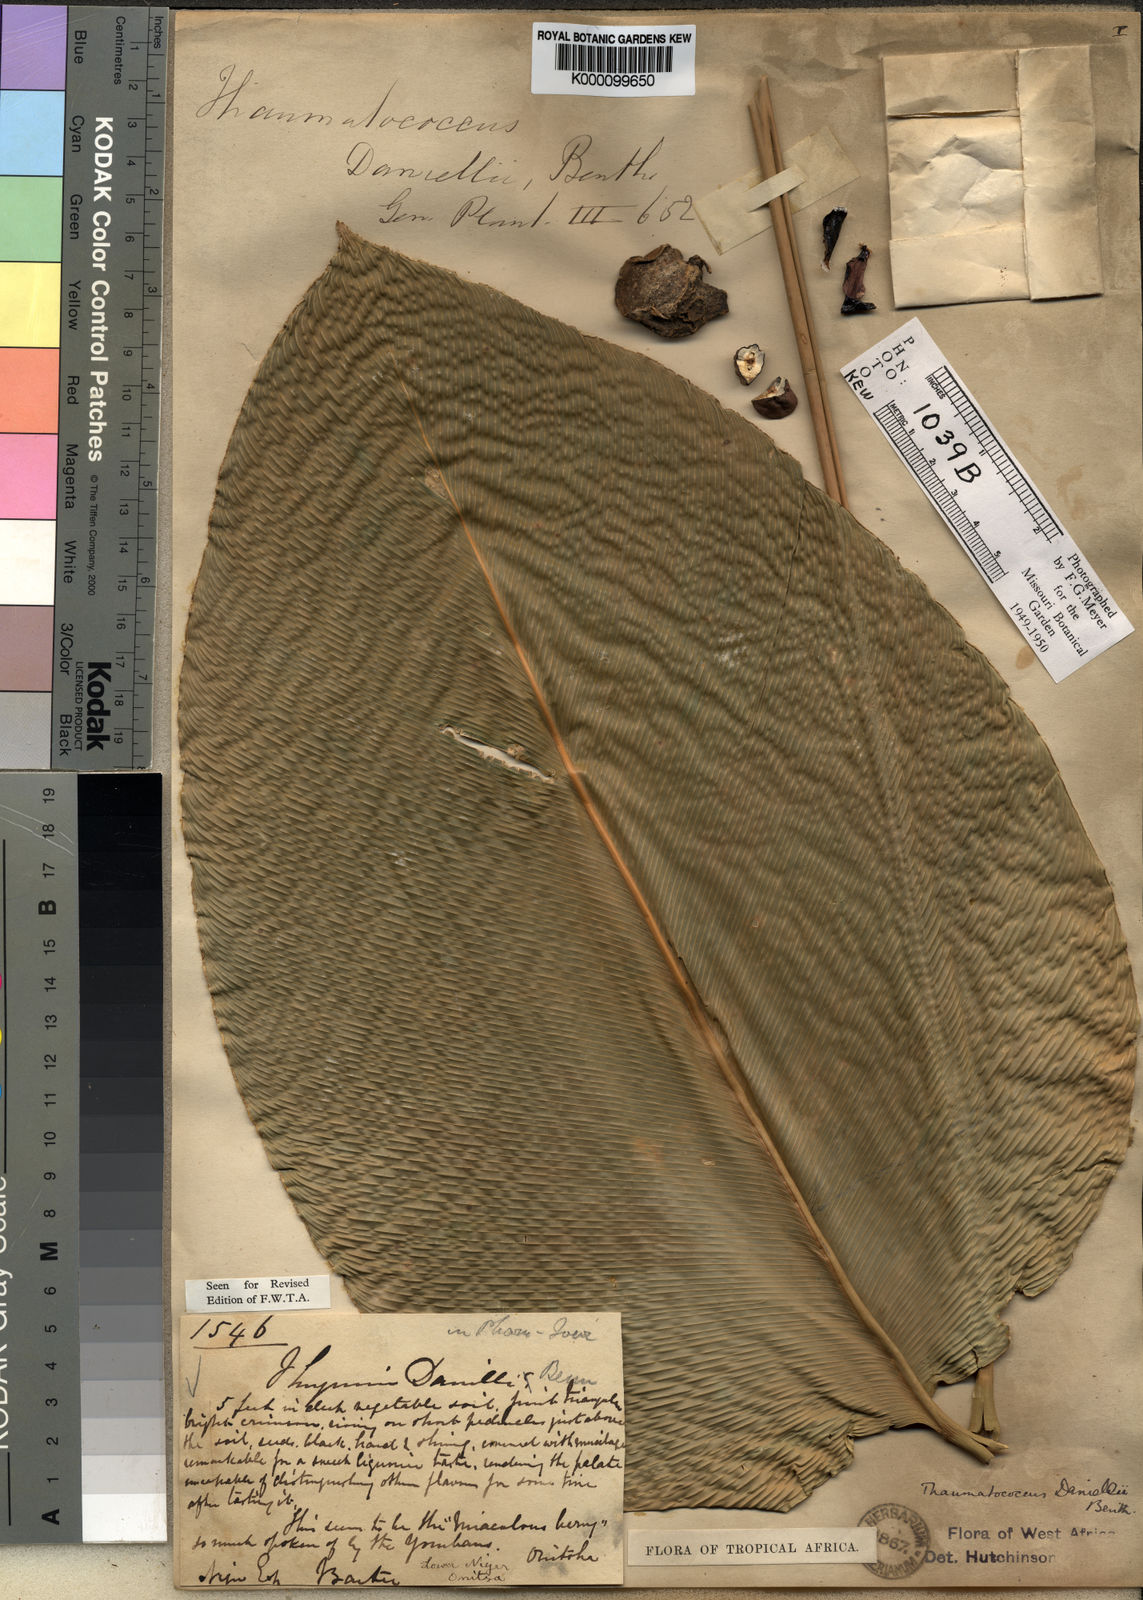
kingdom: Plantae
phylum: Tracheophyta
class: Liliopsida
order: Zingiberales
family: Marantaceae
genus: Thaumatococcus
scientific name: Thaumatococcus
